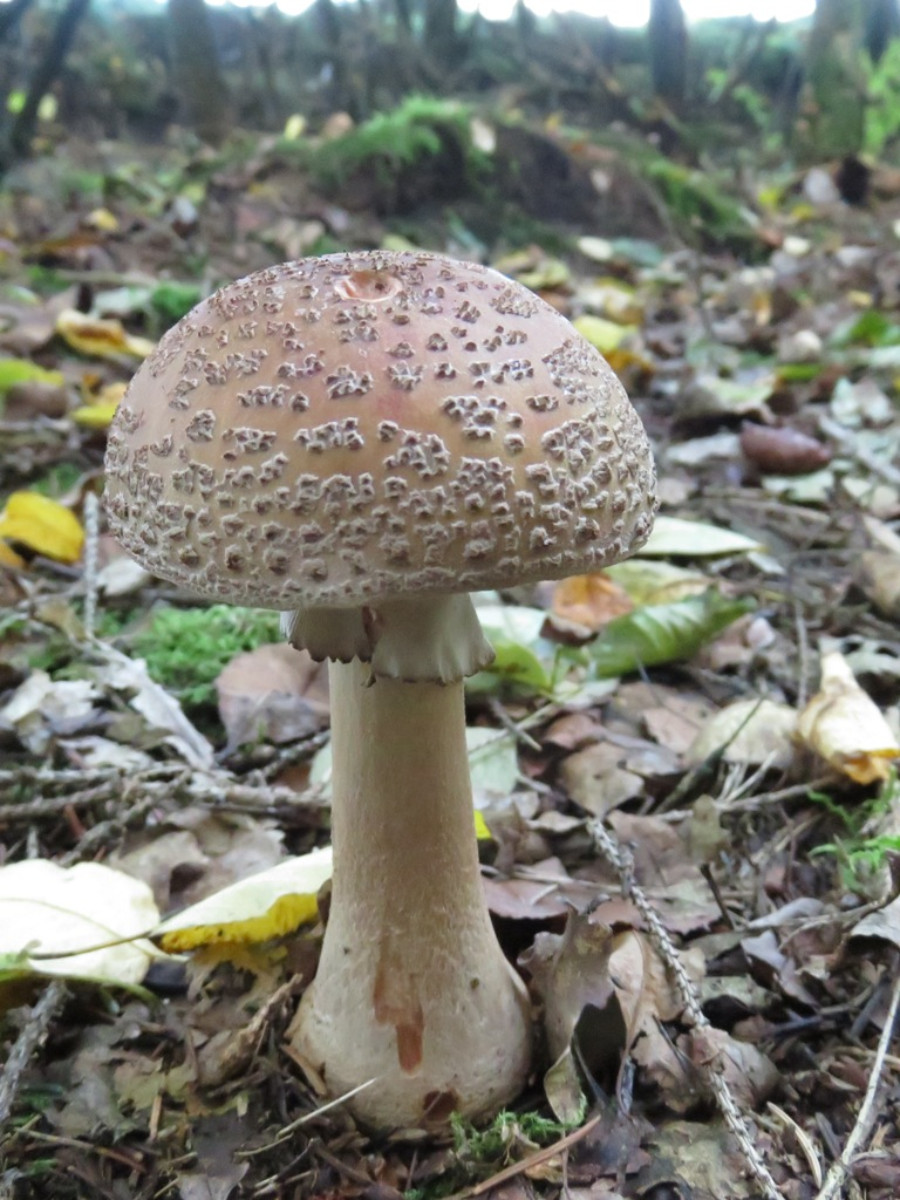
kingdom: Fungi
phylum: Basidiomycota
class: Agaricomycetes
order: Agaricales
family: Amanitaceae
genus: Amanita
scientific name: Amanita rubescens
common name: rødmende fluesvamp
